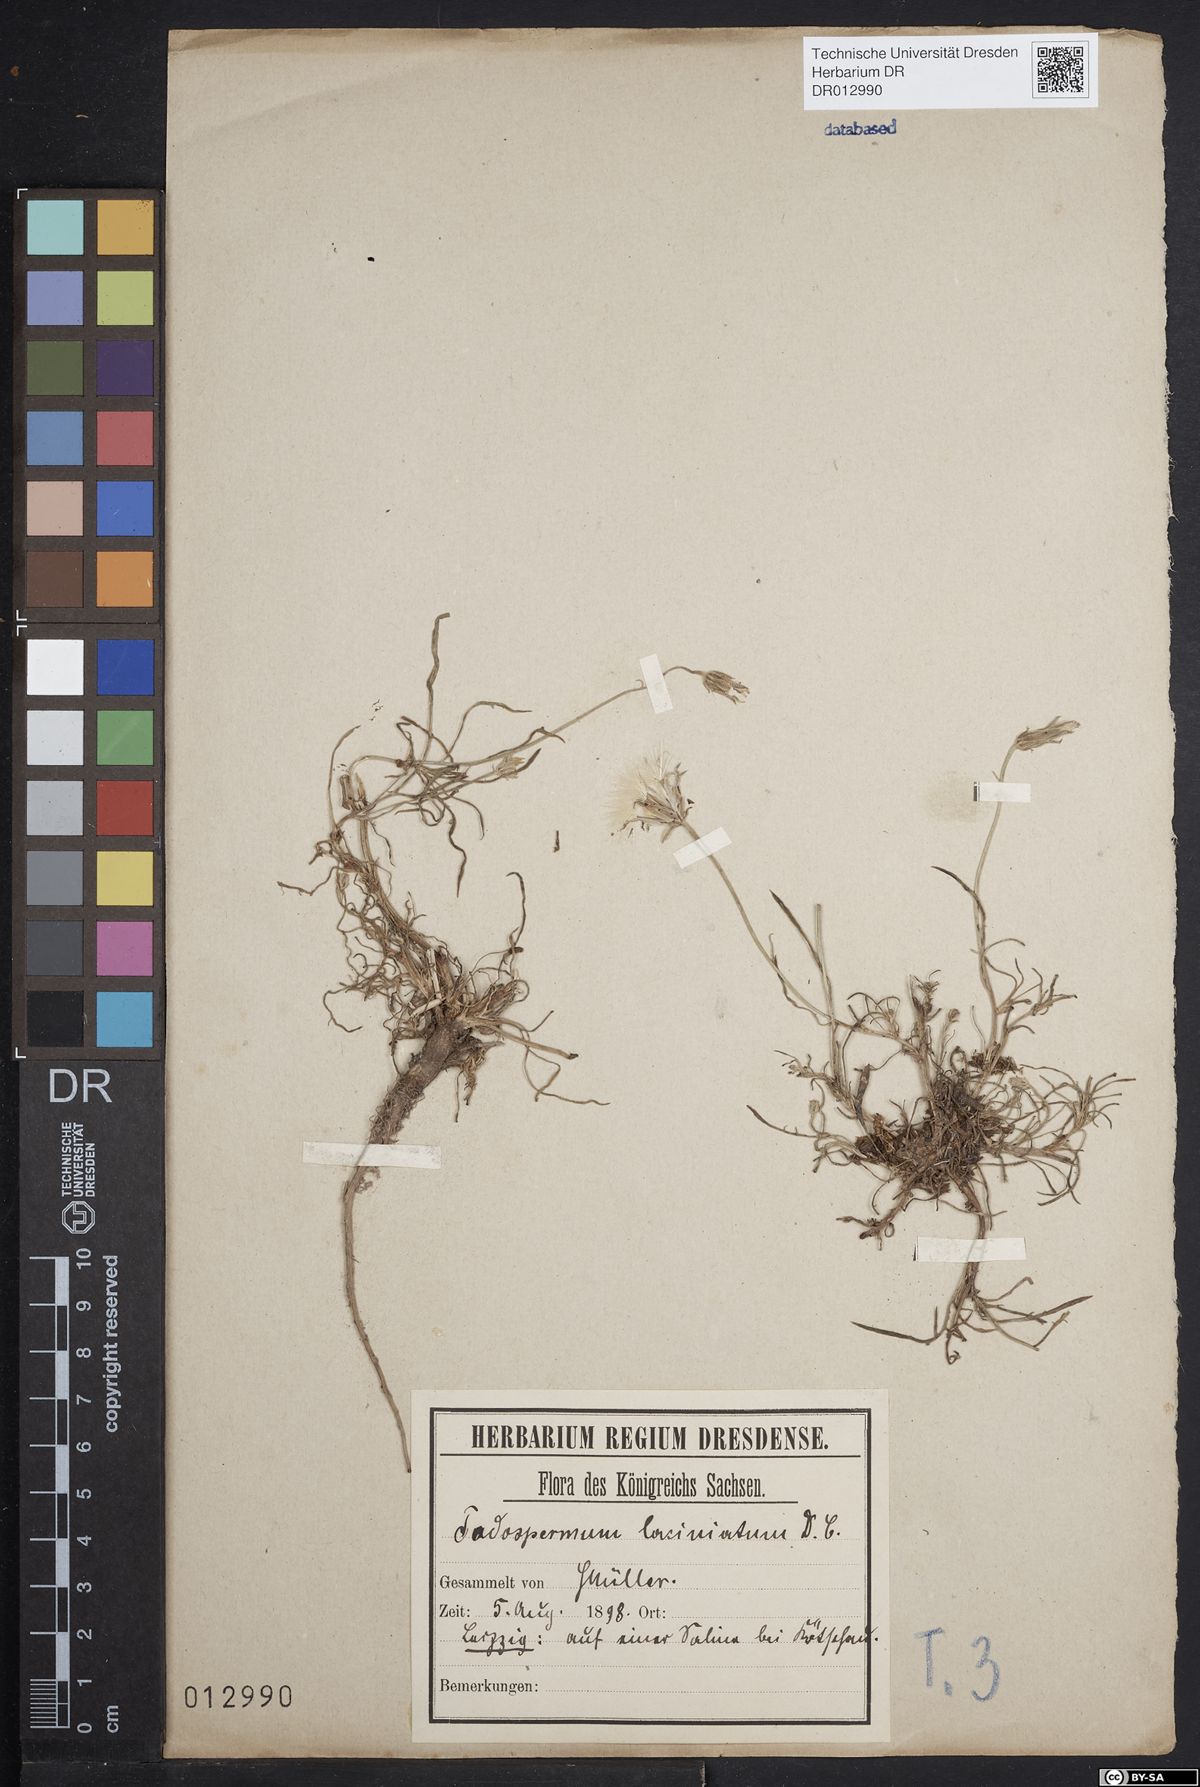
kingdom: Plantae
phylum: Tracheophyta
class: Magnoliopsida
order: Asterales
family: Asteraceae
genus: Scorzonera
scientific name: Scorzonera laciniata
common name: Cutleaf vipergrass
